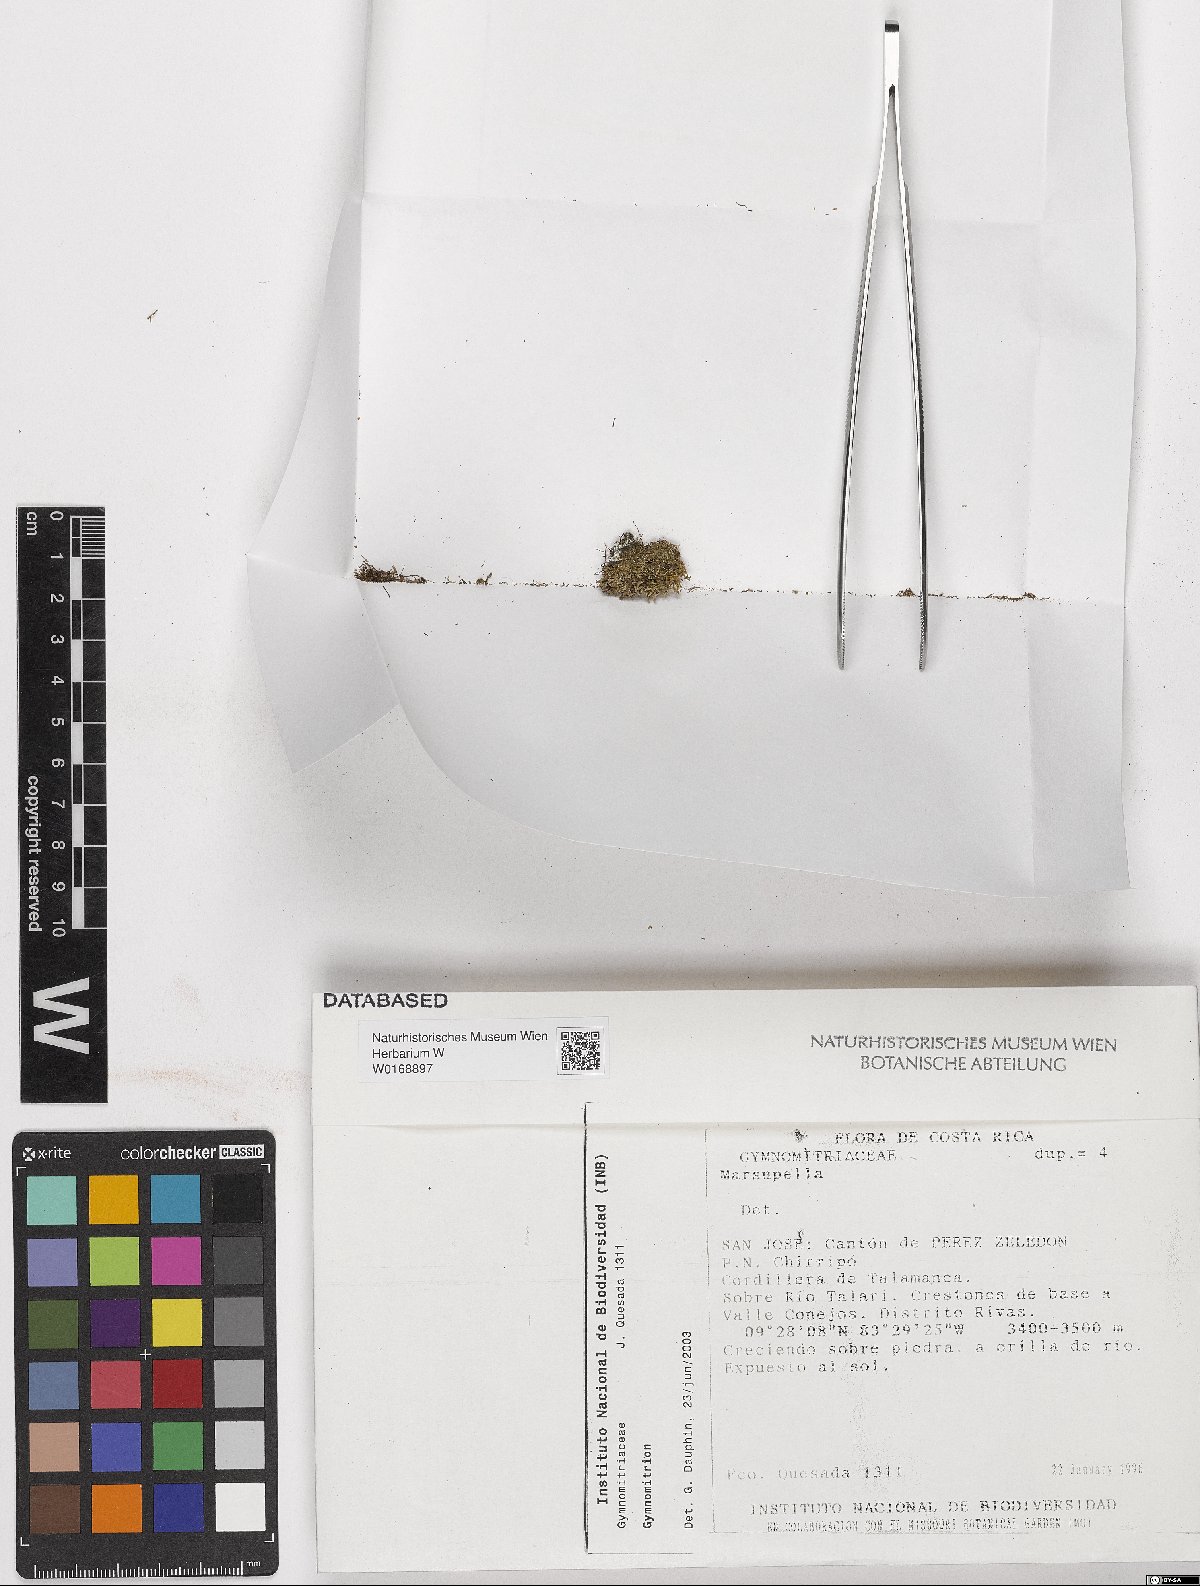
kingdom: Plantae
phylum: Marchantiophyta
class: Jungermanniopsida
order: Jungermanniales
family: Gymnomitriaceae
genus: Gymnomitrion
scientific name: Gymnomitrion
